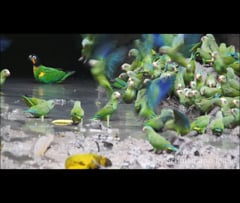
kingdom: Animalia
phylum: Chordata
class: Aves
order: Psittaciformes
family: Psittacidae
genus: Brotogeris
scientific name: Brotogeris cyanoptera
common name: Cobalt-winged parakeet
